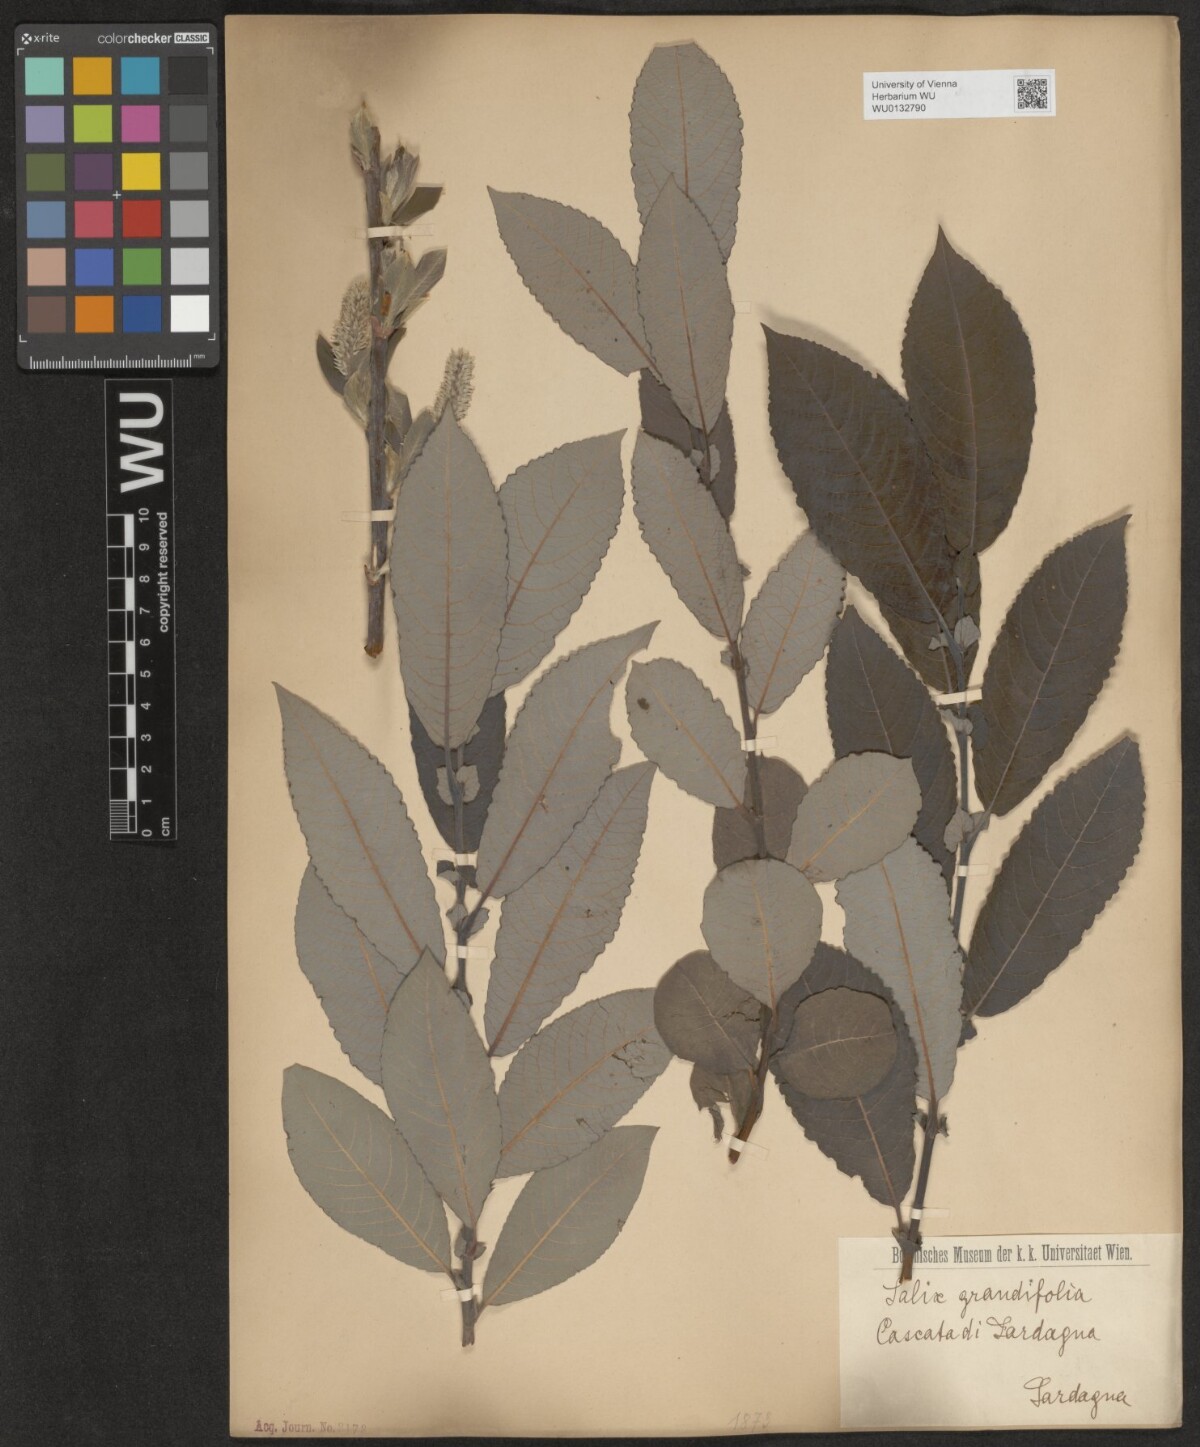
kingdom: Plantae
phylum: Tracheophyta
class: Magnoliopsida
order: Malpighiales
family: Salicaceae
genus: Salix
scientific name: Salix appendiculata
